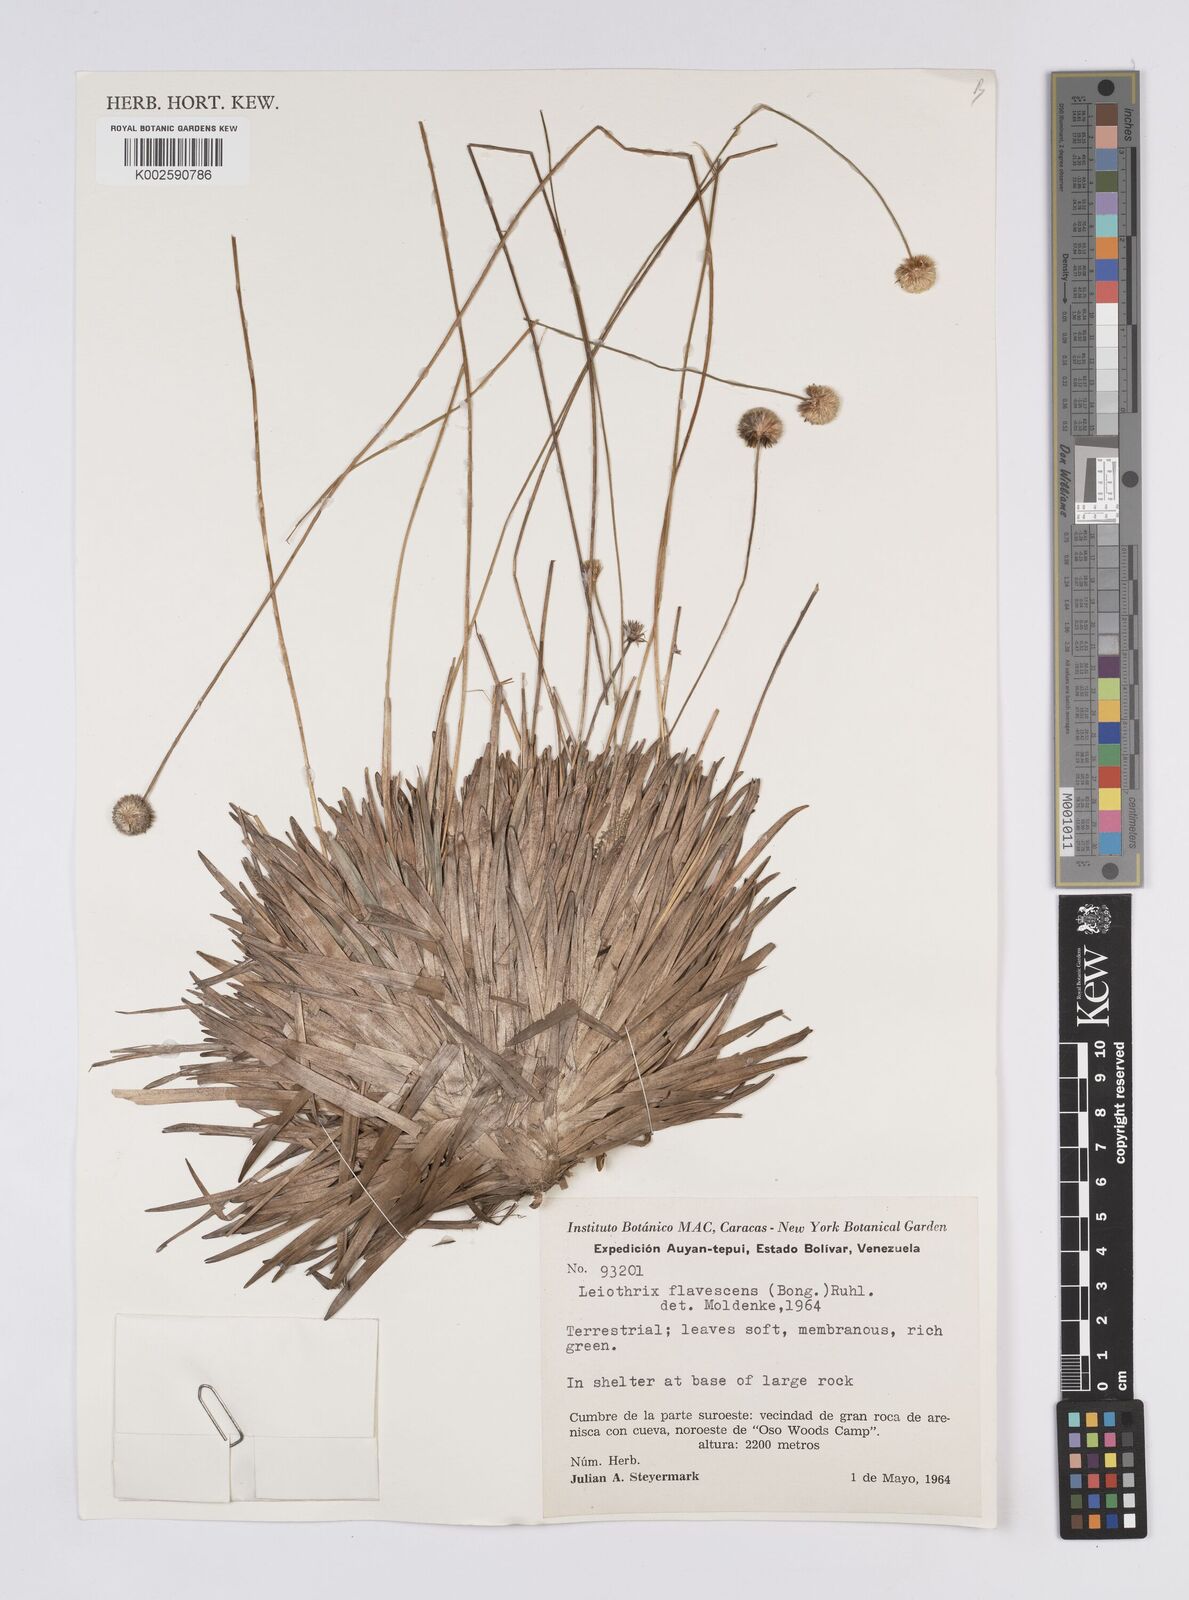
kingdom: Plantae
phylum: Tracheophyta
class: Liliopsida
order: Poales
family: Eriocaulaceae
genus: Leiothrix
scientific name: Leiothrix flavescens
